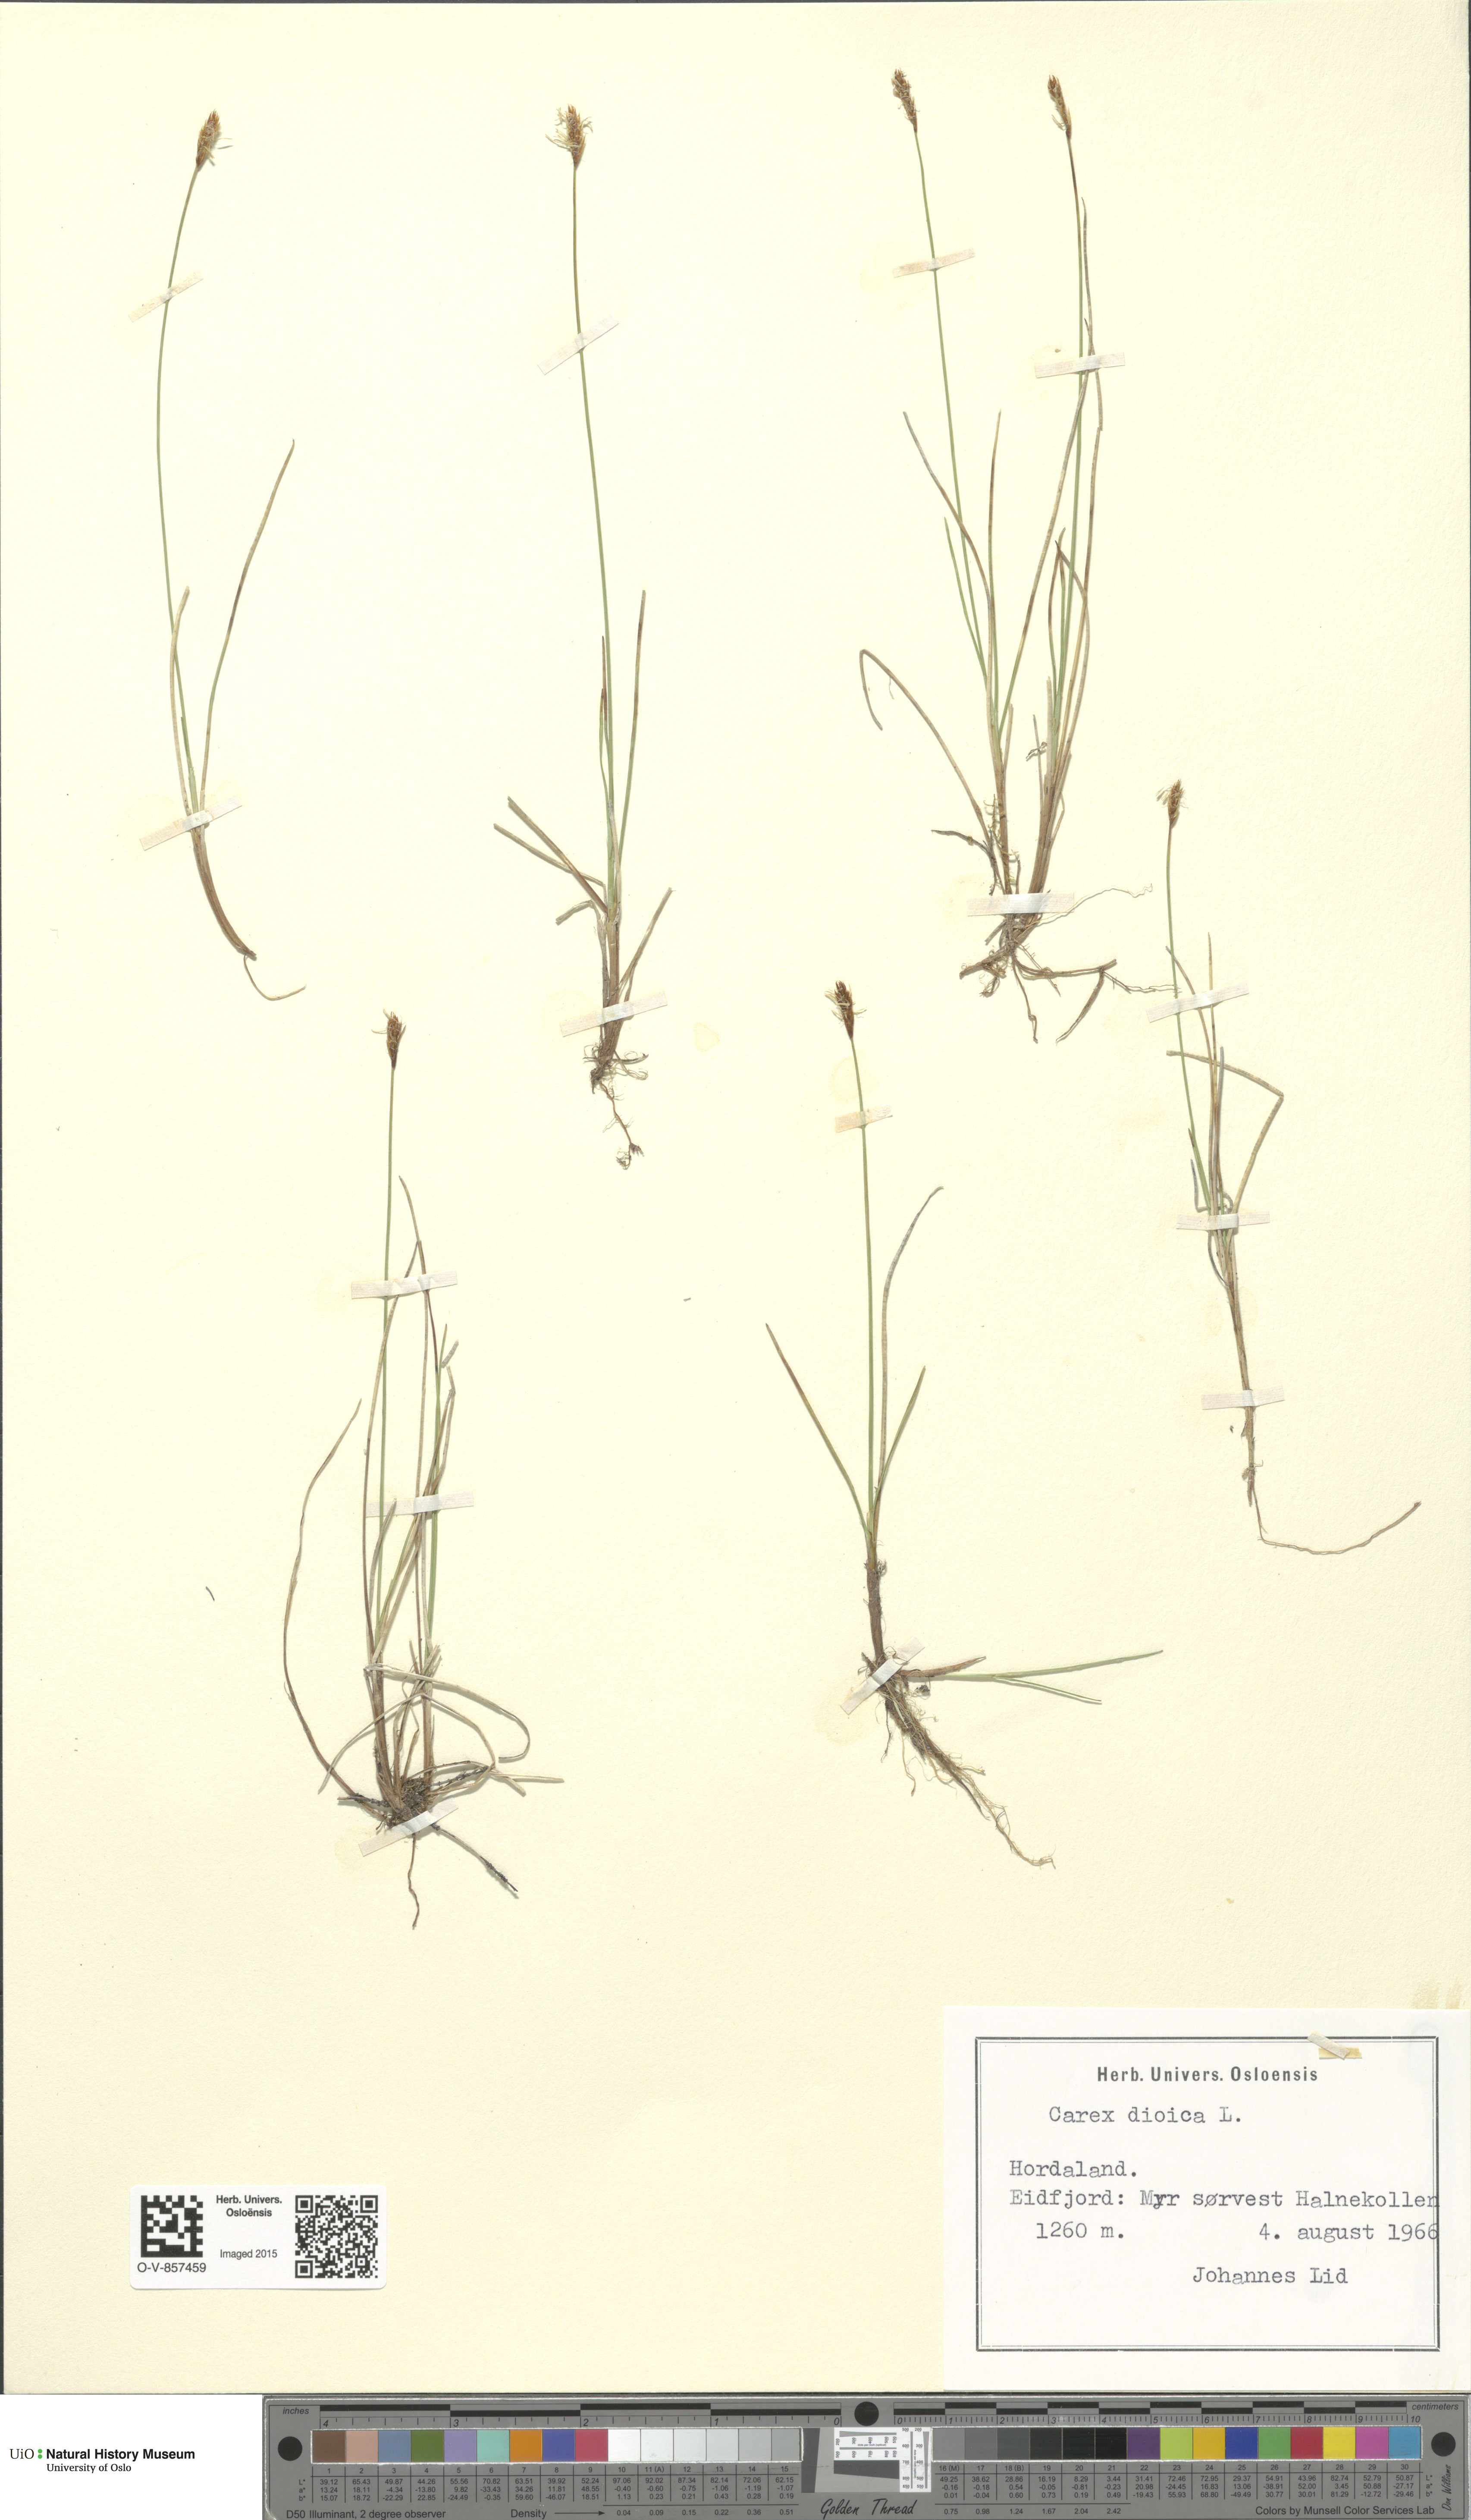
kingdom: Plantae
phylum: Tracheophyta
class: Liliopsida
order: Poales
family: Cyperaceae
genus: Carex
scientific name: Carex dioica
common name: Dioecious sedge
